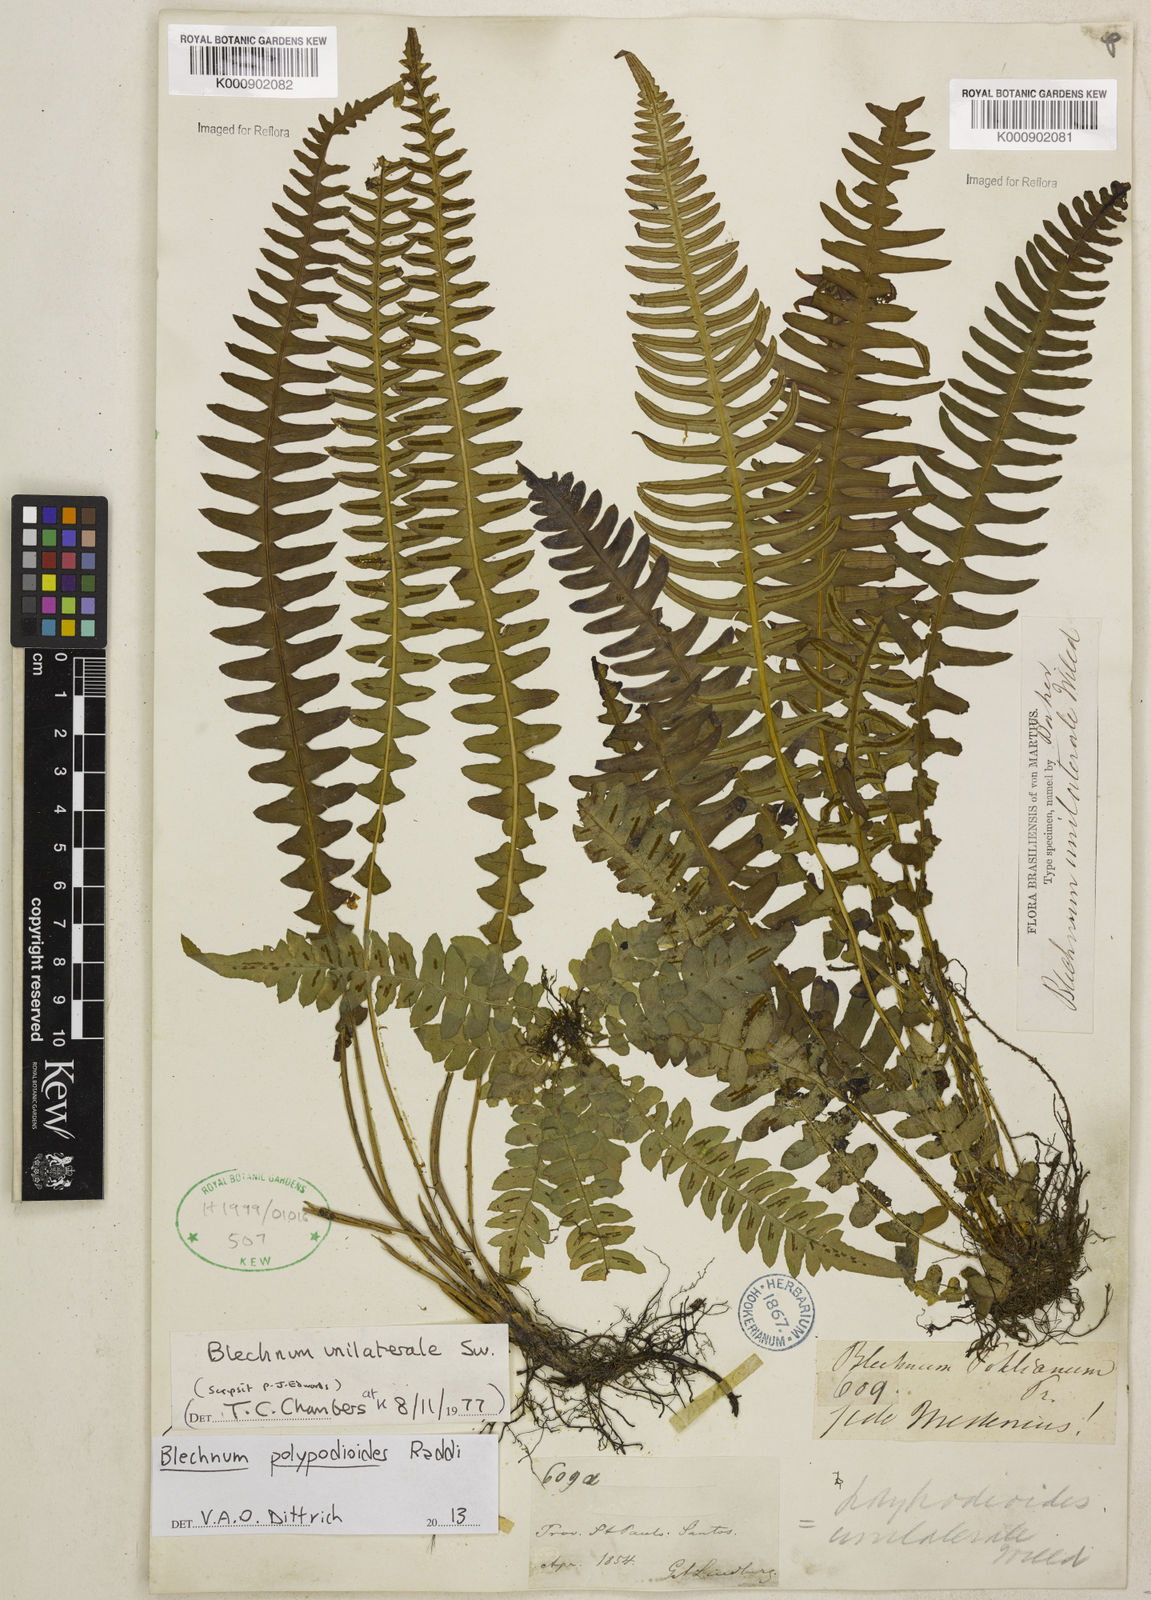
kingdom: Plantae
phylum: Tracheophyta
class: Polypodiopsida
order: Polypodiales
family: Blechnaceae
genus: Blechnum
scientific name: Blechnum polypodioides
